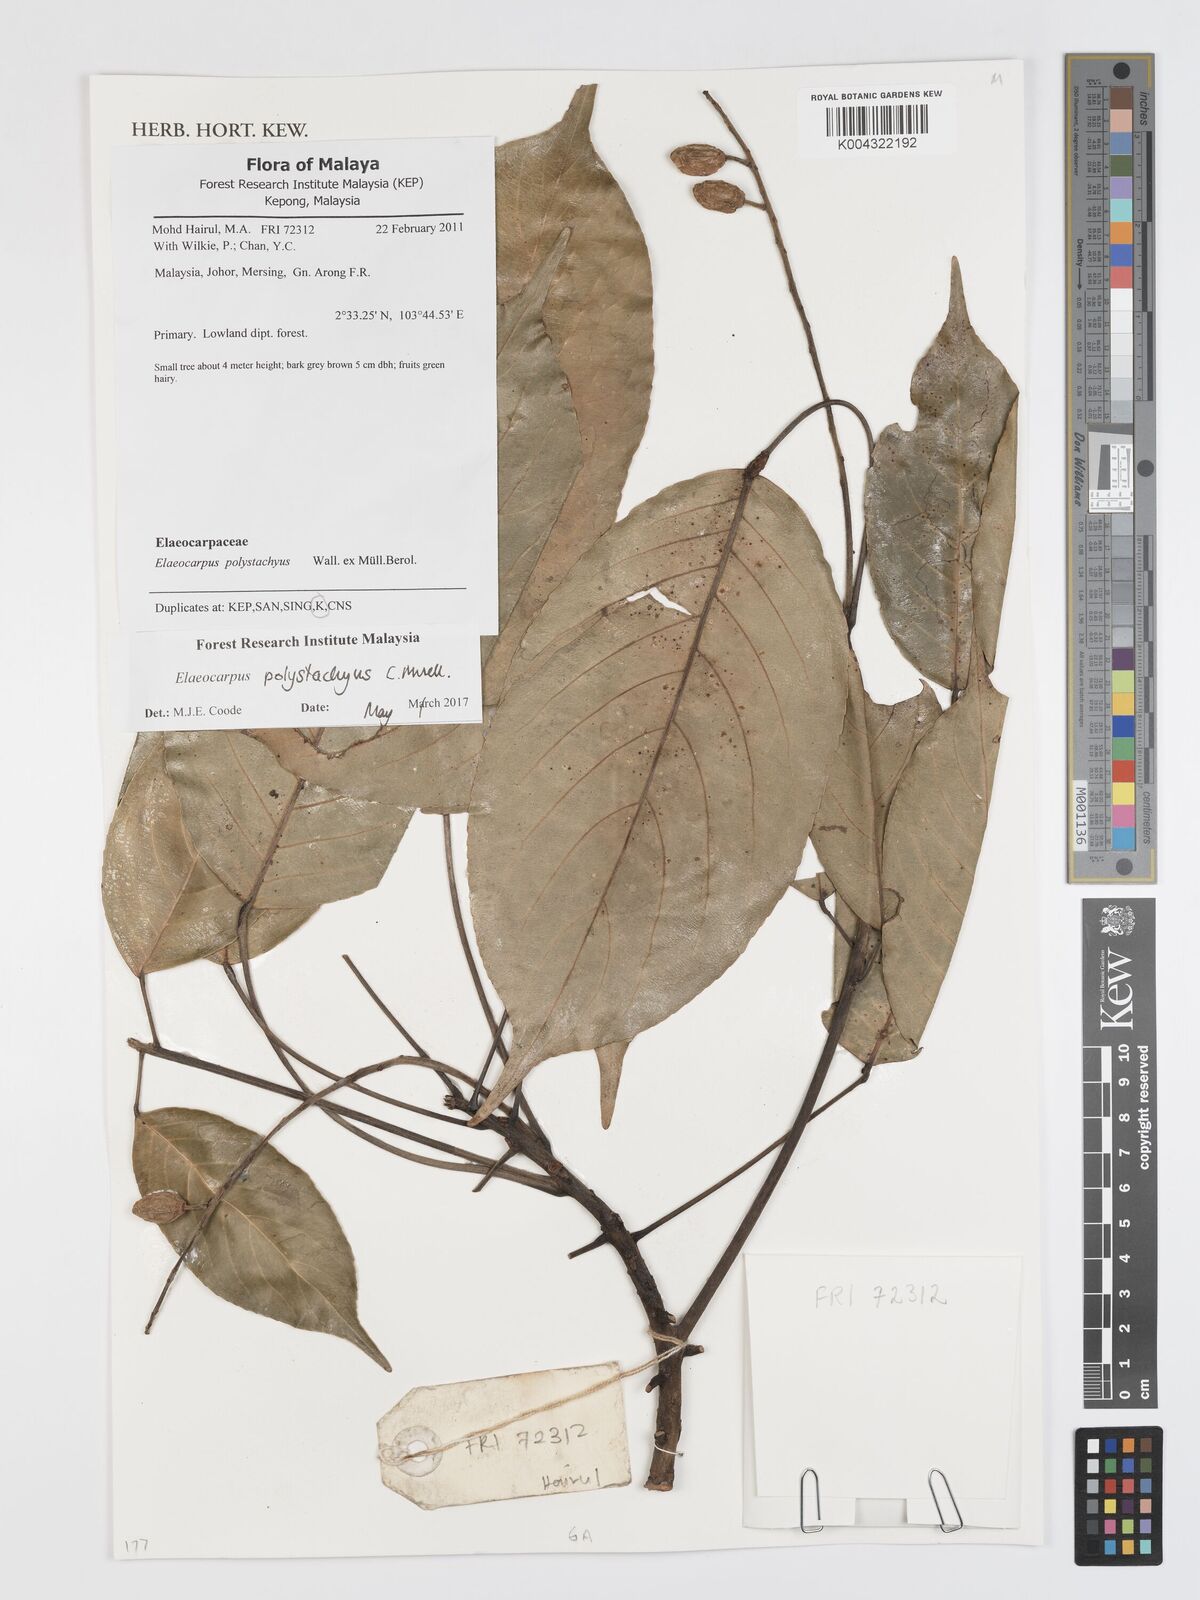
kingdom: Plantae
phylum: Tracheophyta
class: Magnoliopsida
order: Oxalidales
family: Elaeocarpaceae
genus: Elaeocarpus
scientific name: Elaeocarpus polystachyus
